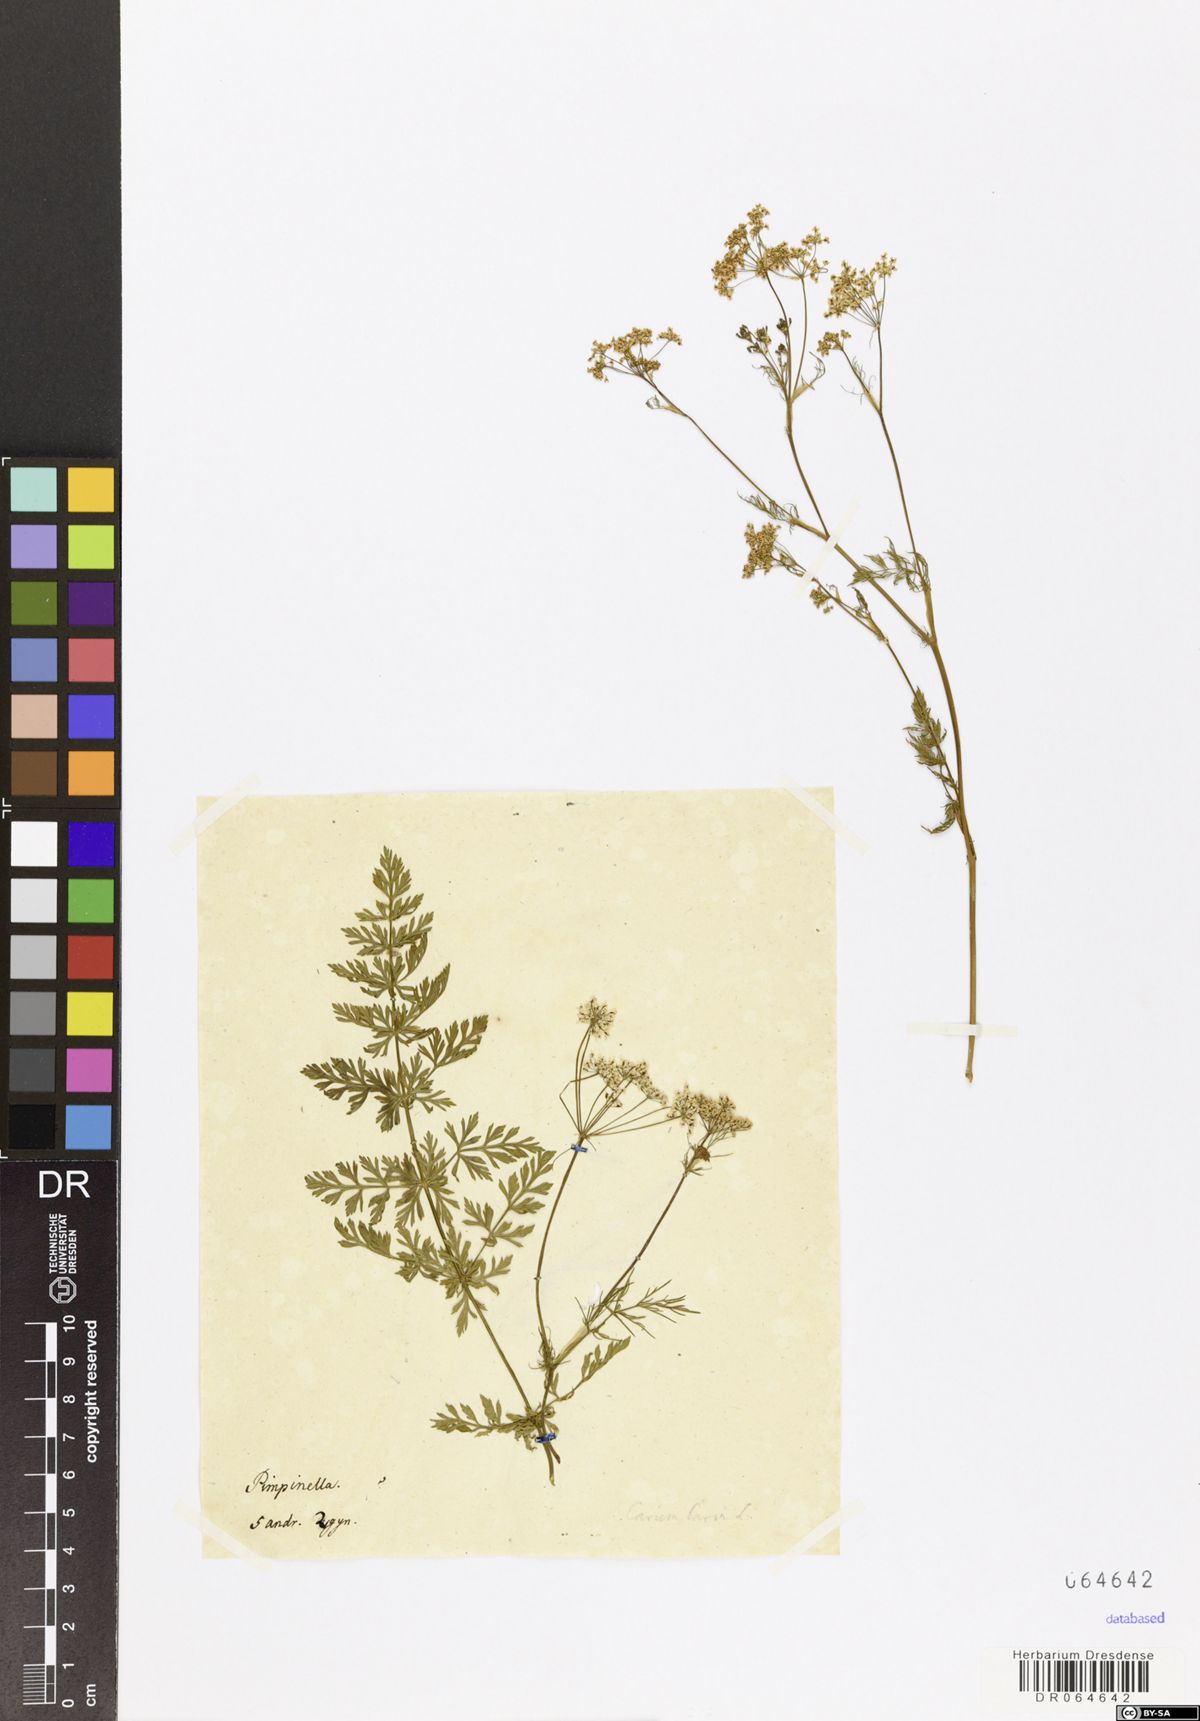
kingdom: Plantae
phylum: Tracheophyta
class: Magnoliopsida
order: Apiales
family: Apiaceae
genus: Carum
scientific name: Carum carvi
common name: Caraway
